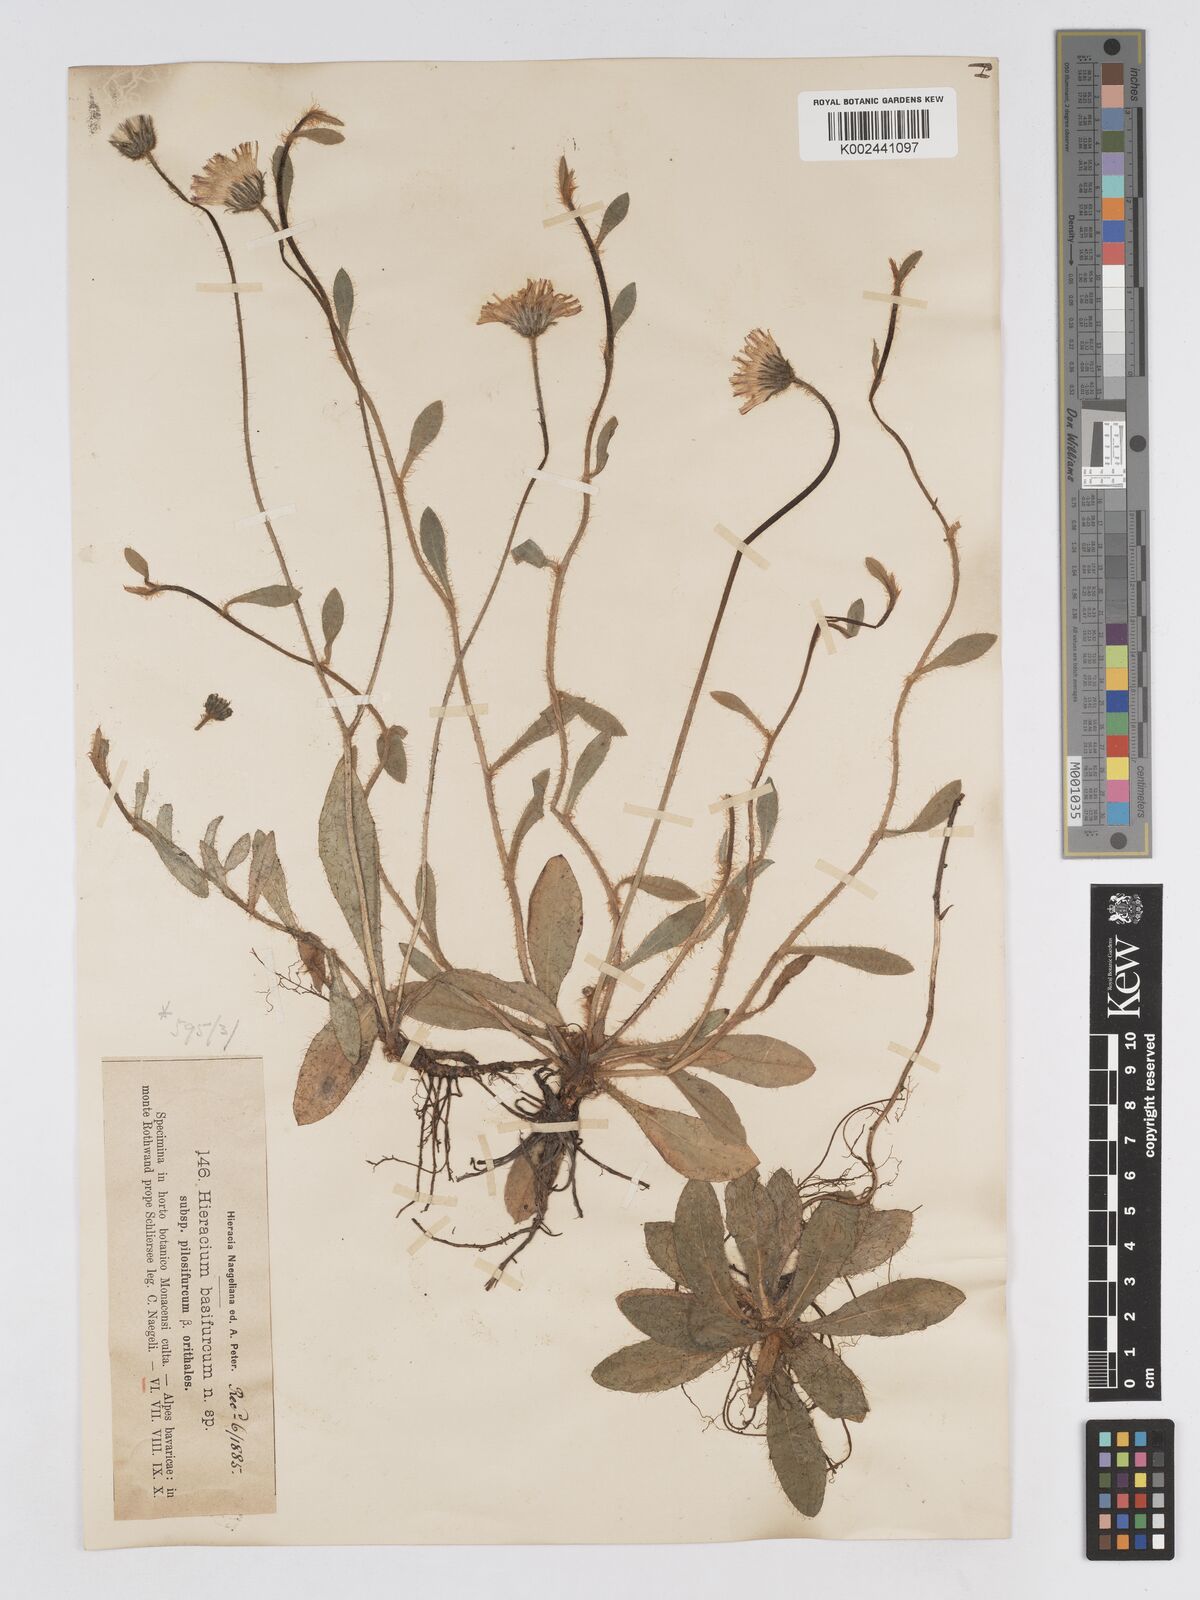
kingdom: Plantae
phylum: Tracheophyta
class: Magnoliopsida
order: Asterales
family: Asteraceae
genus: Pilosella
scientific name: Pilosella basifurca
